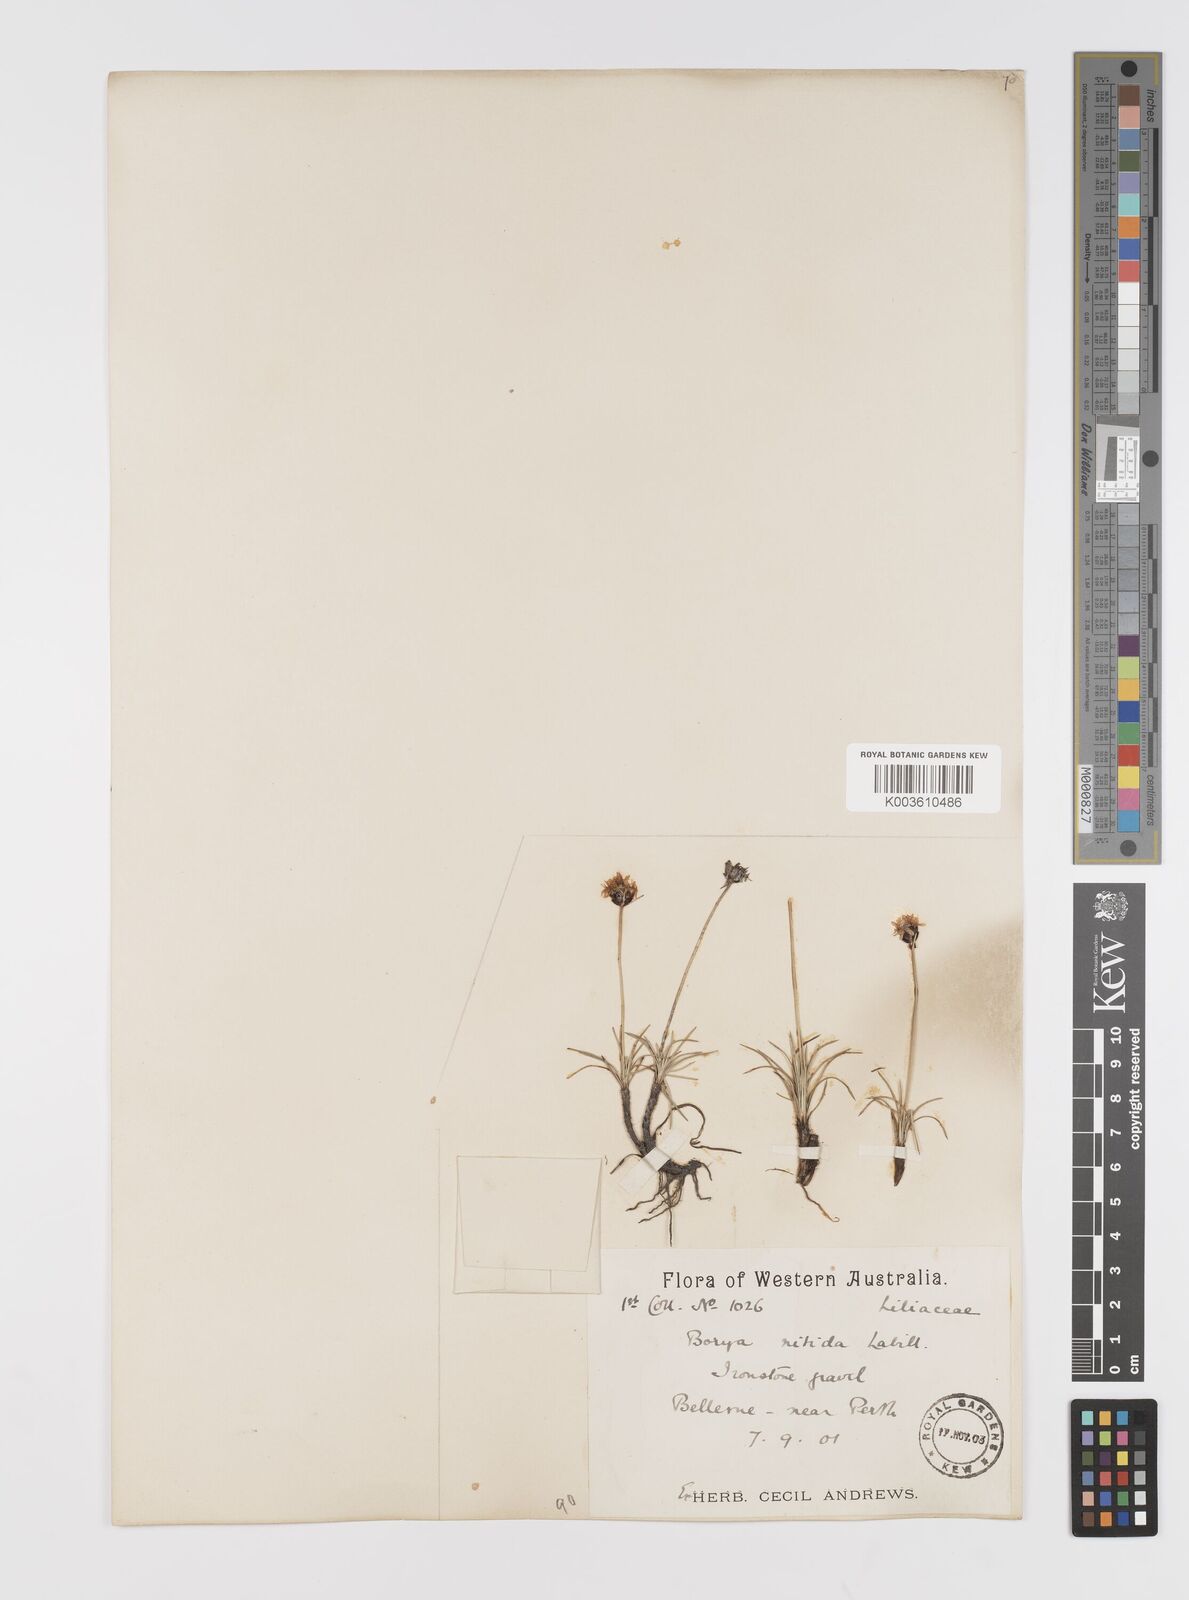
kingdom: Plantae
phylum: Tracheophyta
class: Liliopsida
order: Asparagales
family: Boryaceae
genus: Borya
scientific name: Borya nitida
